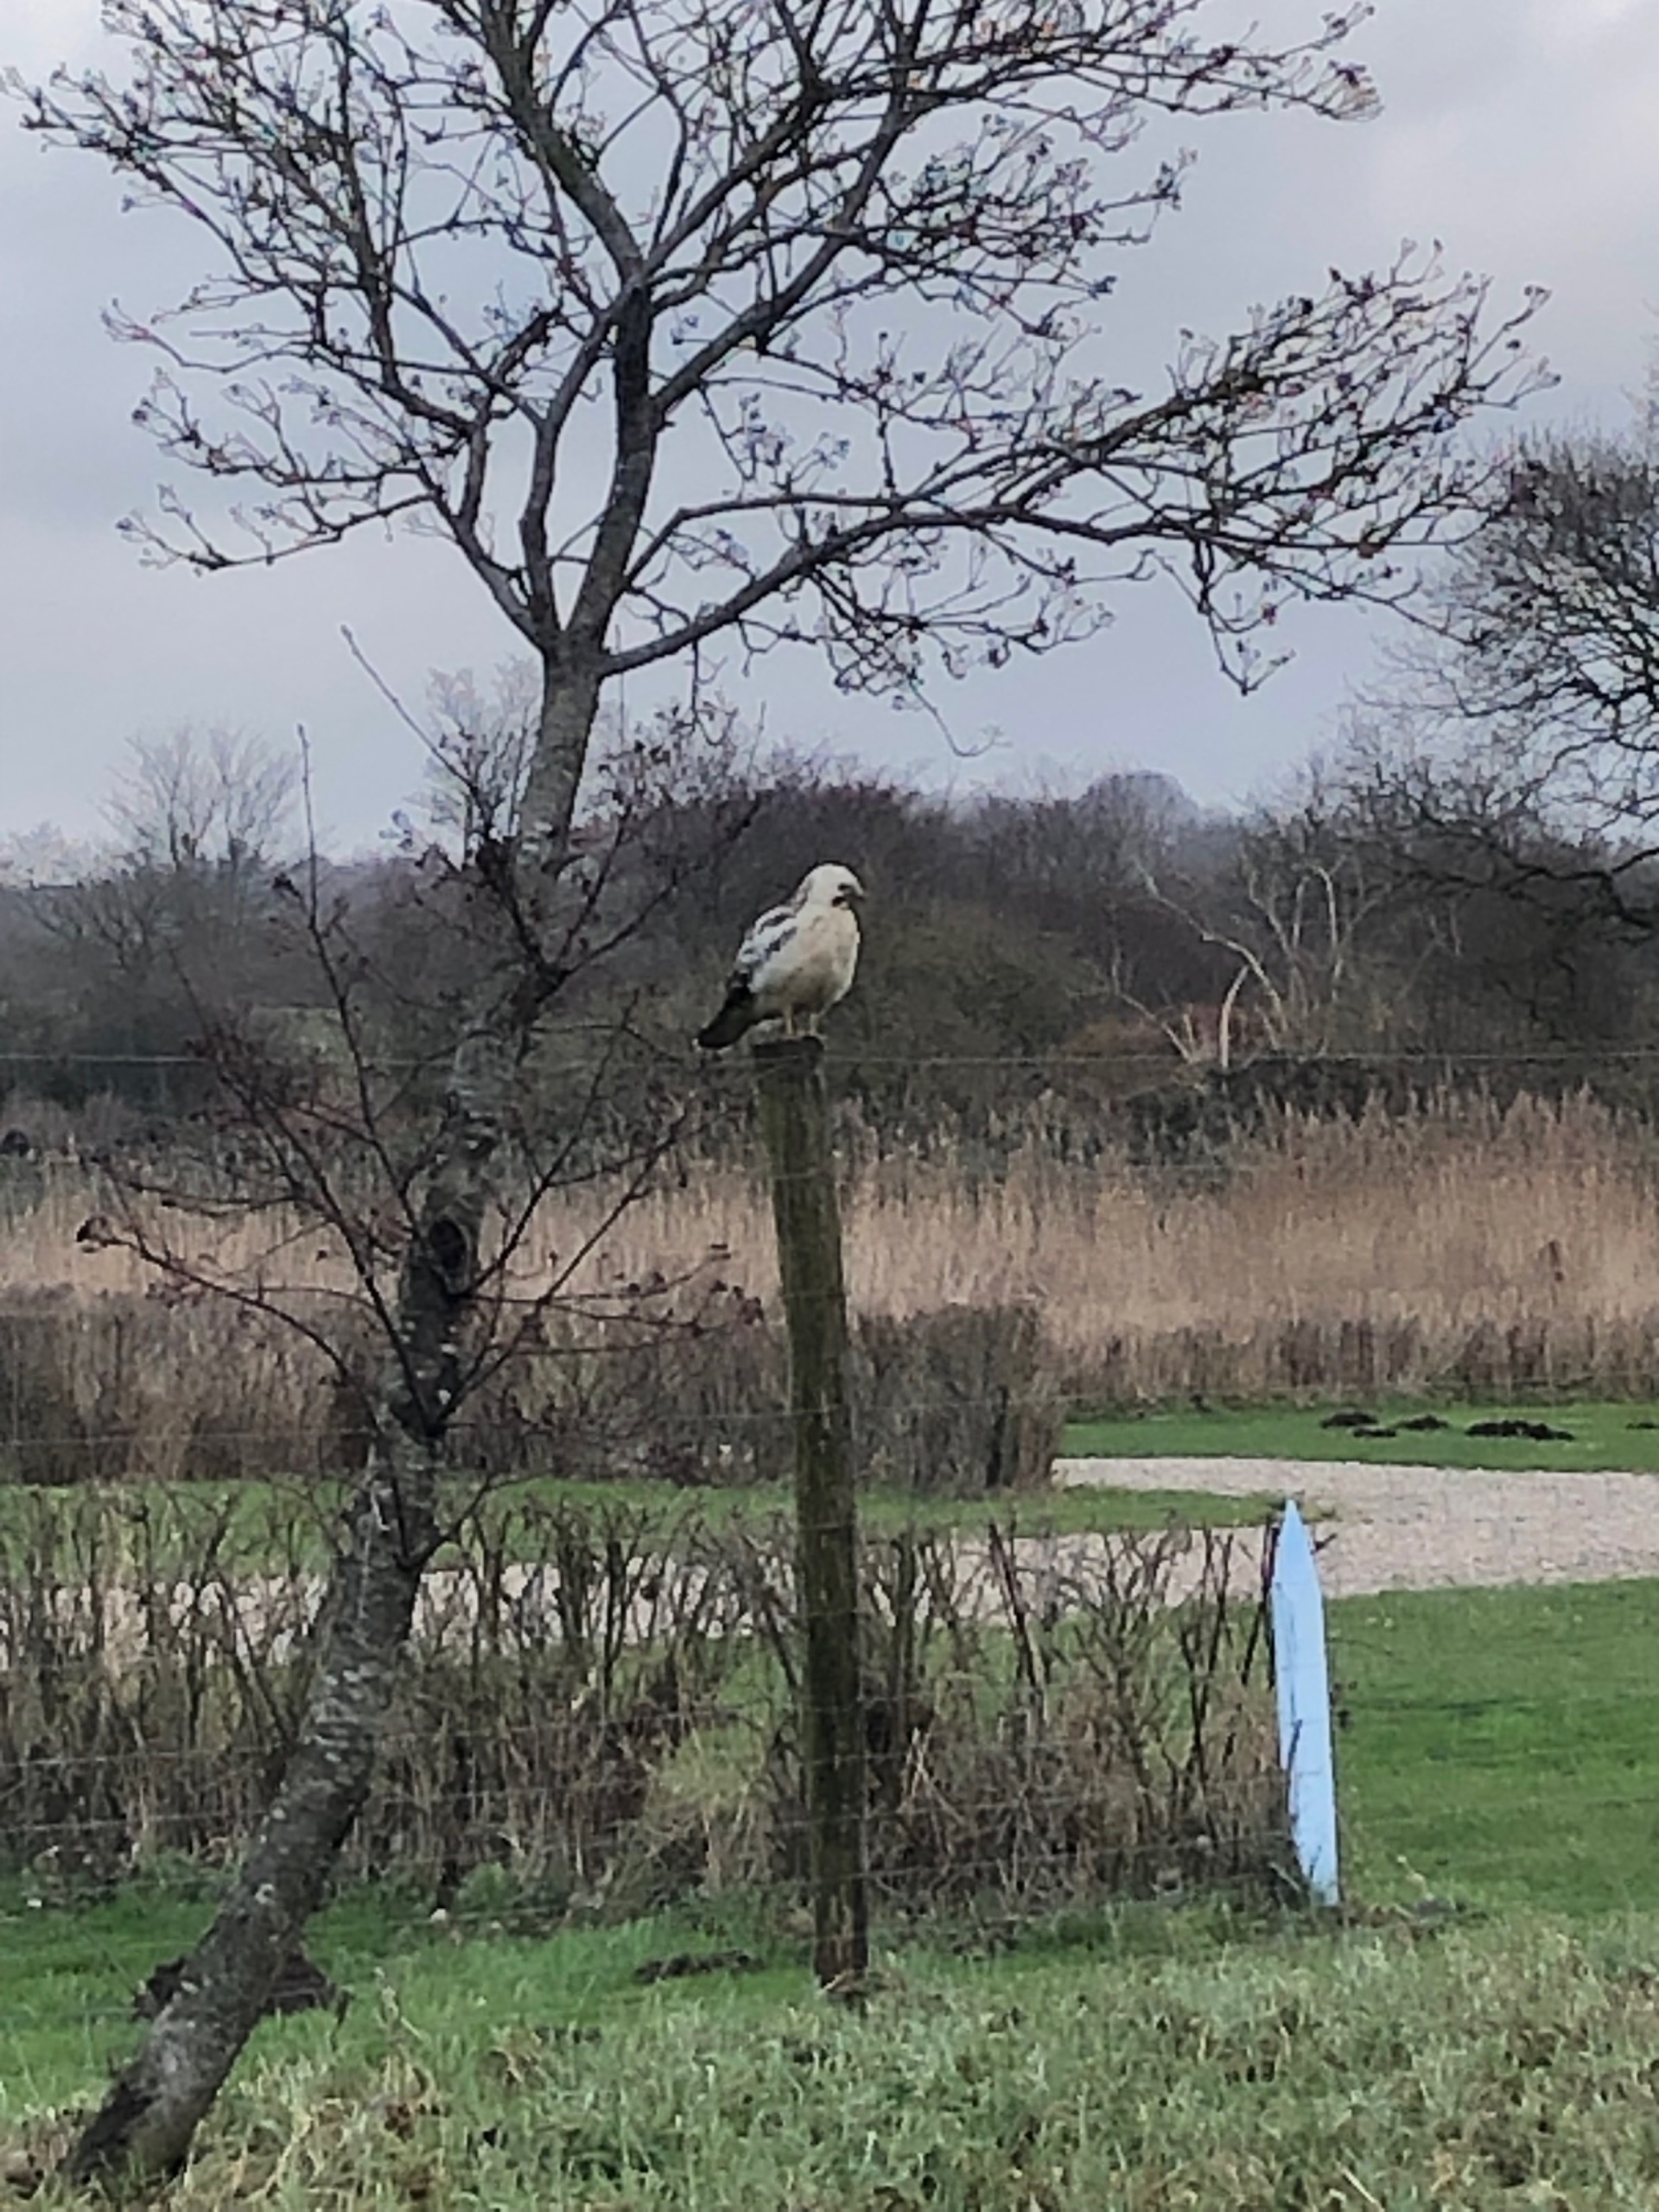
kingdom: Animalia
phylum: Chordata
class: Aves
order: Accipitriformes
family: Accipitridae
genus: Buteo
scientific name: Buteo buteo
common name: Musvåge
